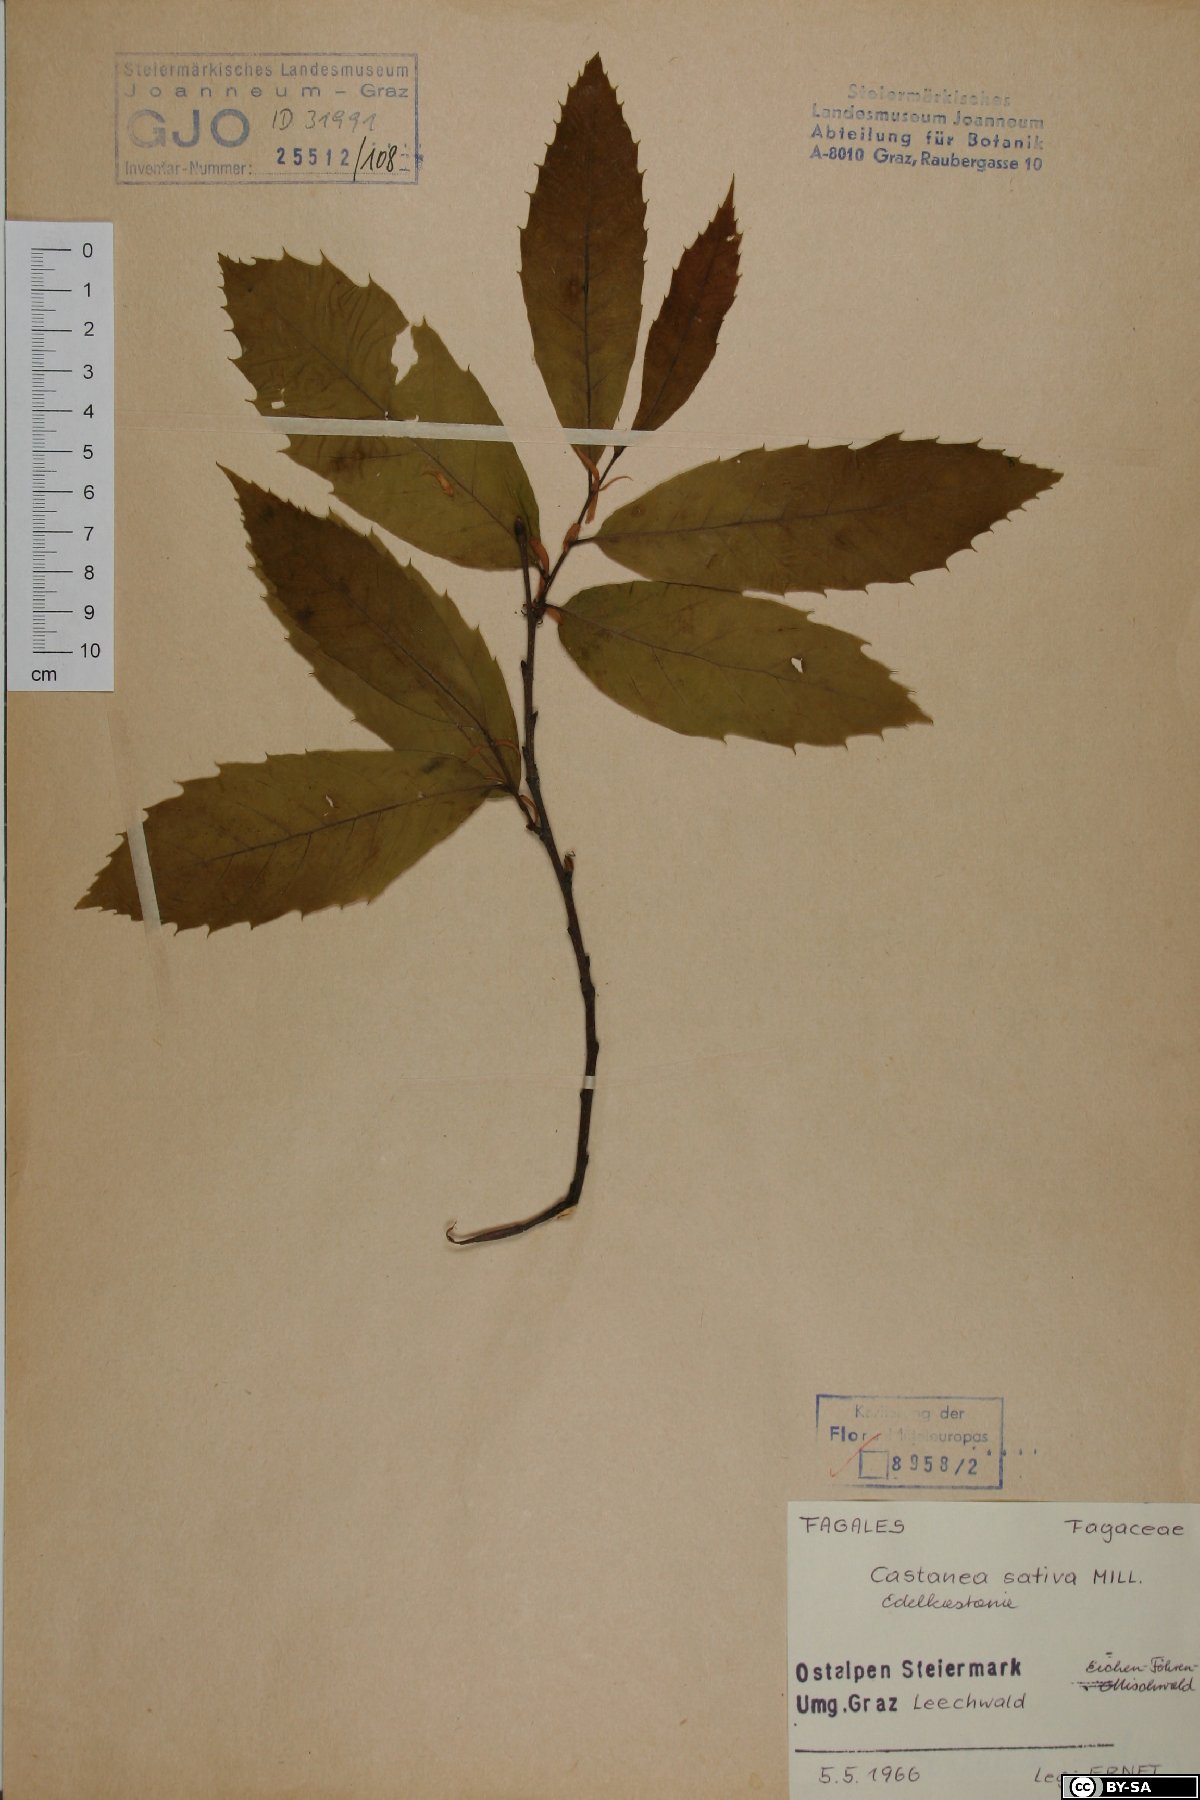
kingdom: Plantae
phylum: Tracheophyta
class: Magnoliopsida
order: Fagales
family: Fagaceae
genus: Castanea
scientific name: Castanea sativa
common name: Sweet chestnut
